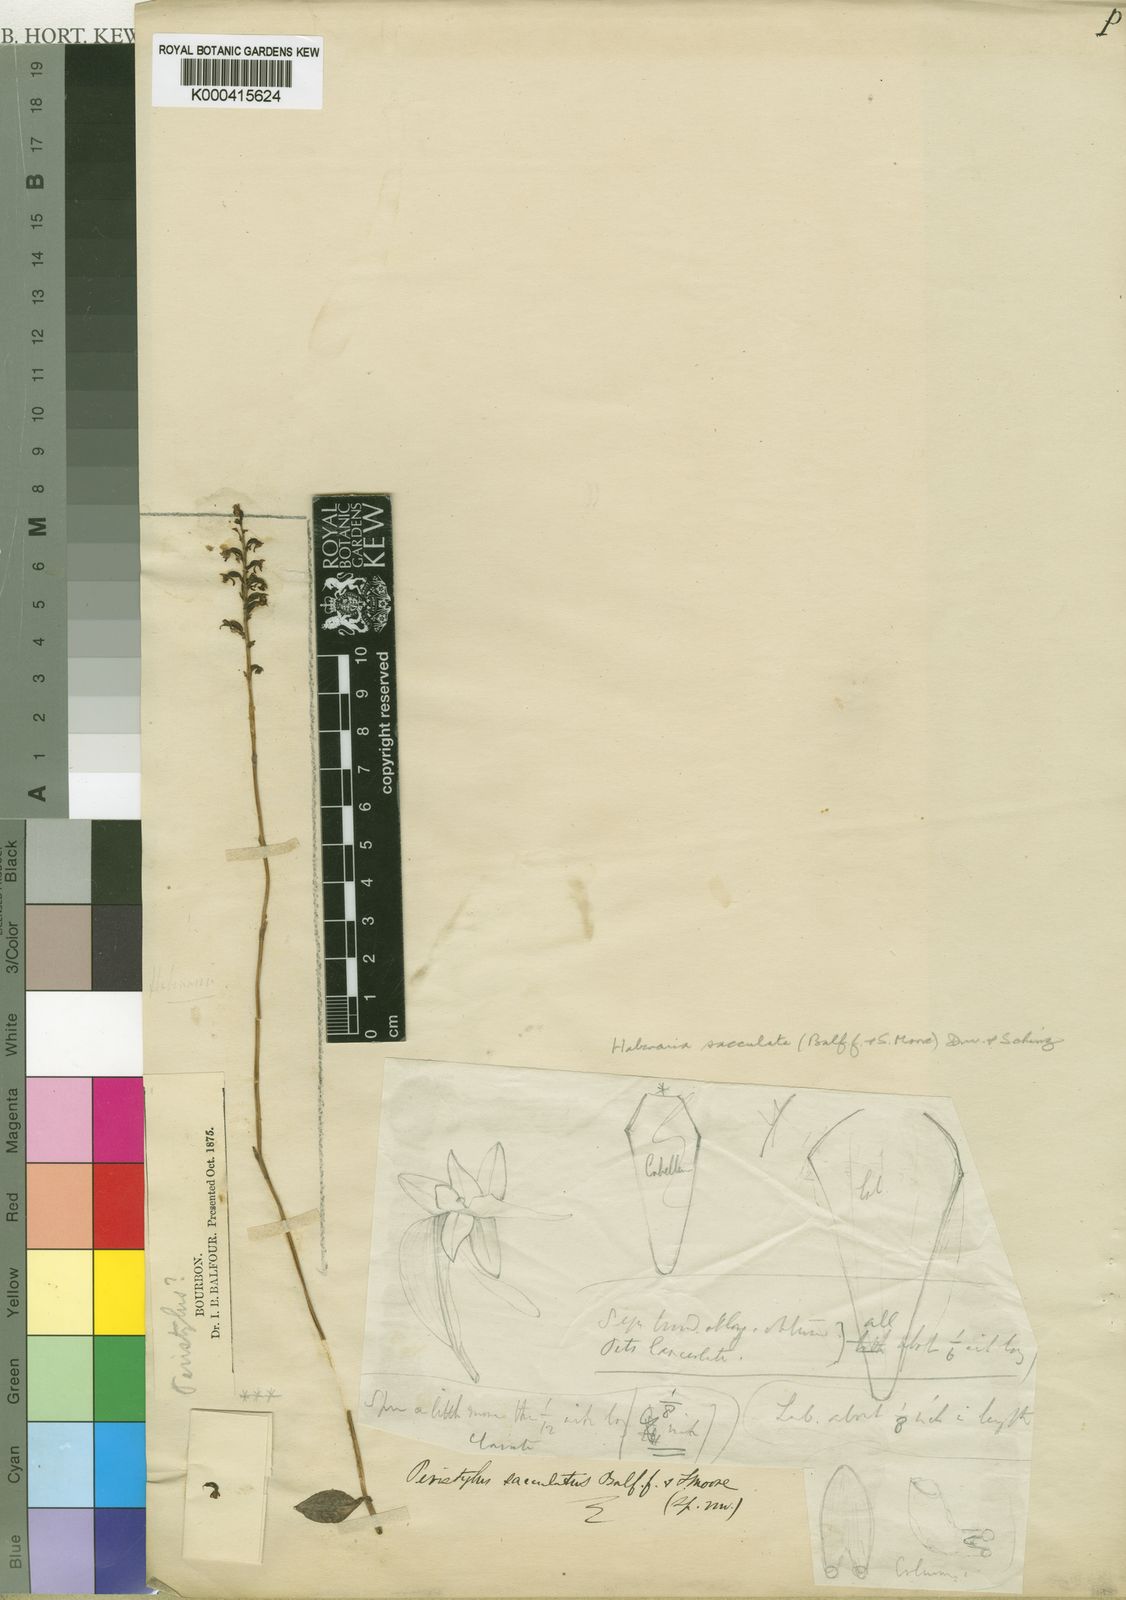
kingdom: Plantae
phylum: Tracheophyta
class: Liliopsida
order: Asparagales
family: Orchidaceae
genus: Cynorkis
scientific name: Cynorkis falcata
